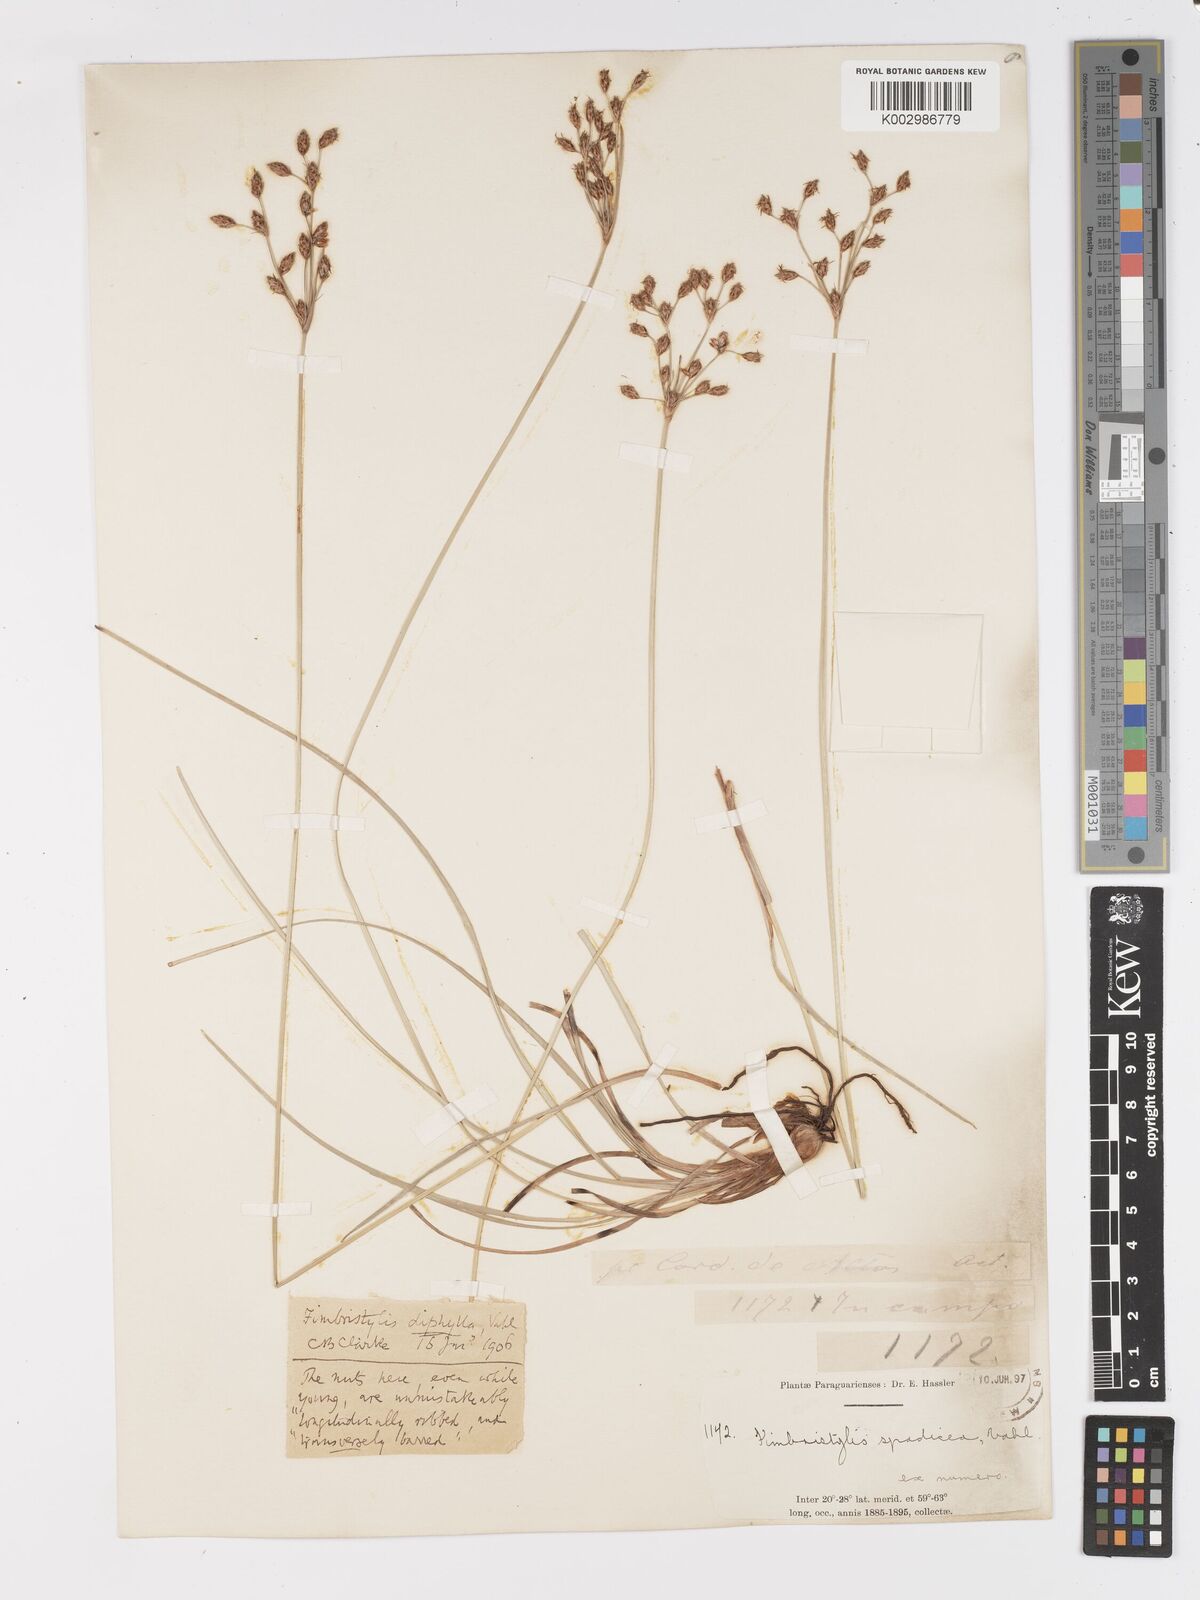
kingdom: Plantae
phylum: Tracheophyta
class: Liliopsida
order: Poales
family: Cyperaceae
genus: Fimbristylis
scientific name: Fimbristylis dichotoma
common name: Forked fimbry
